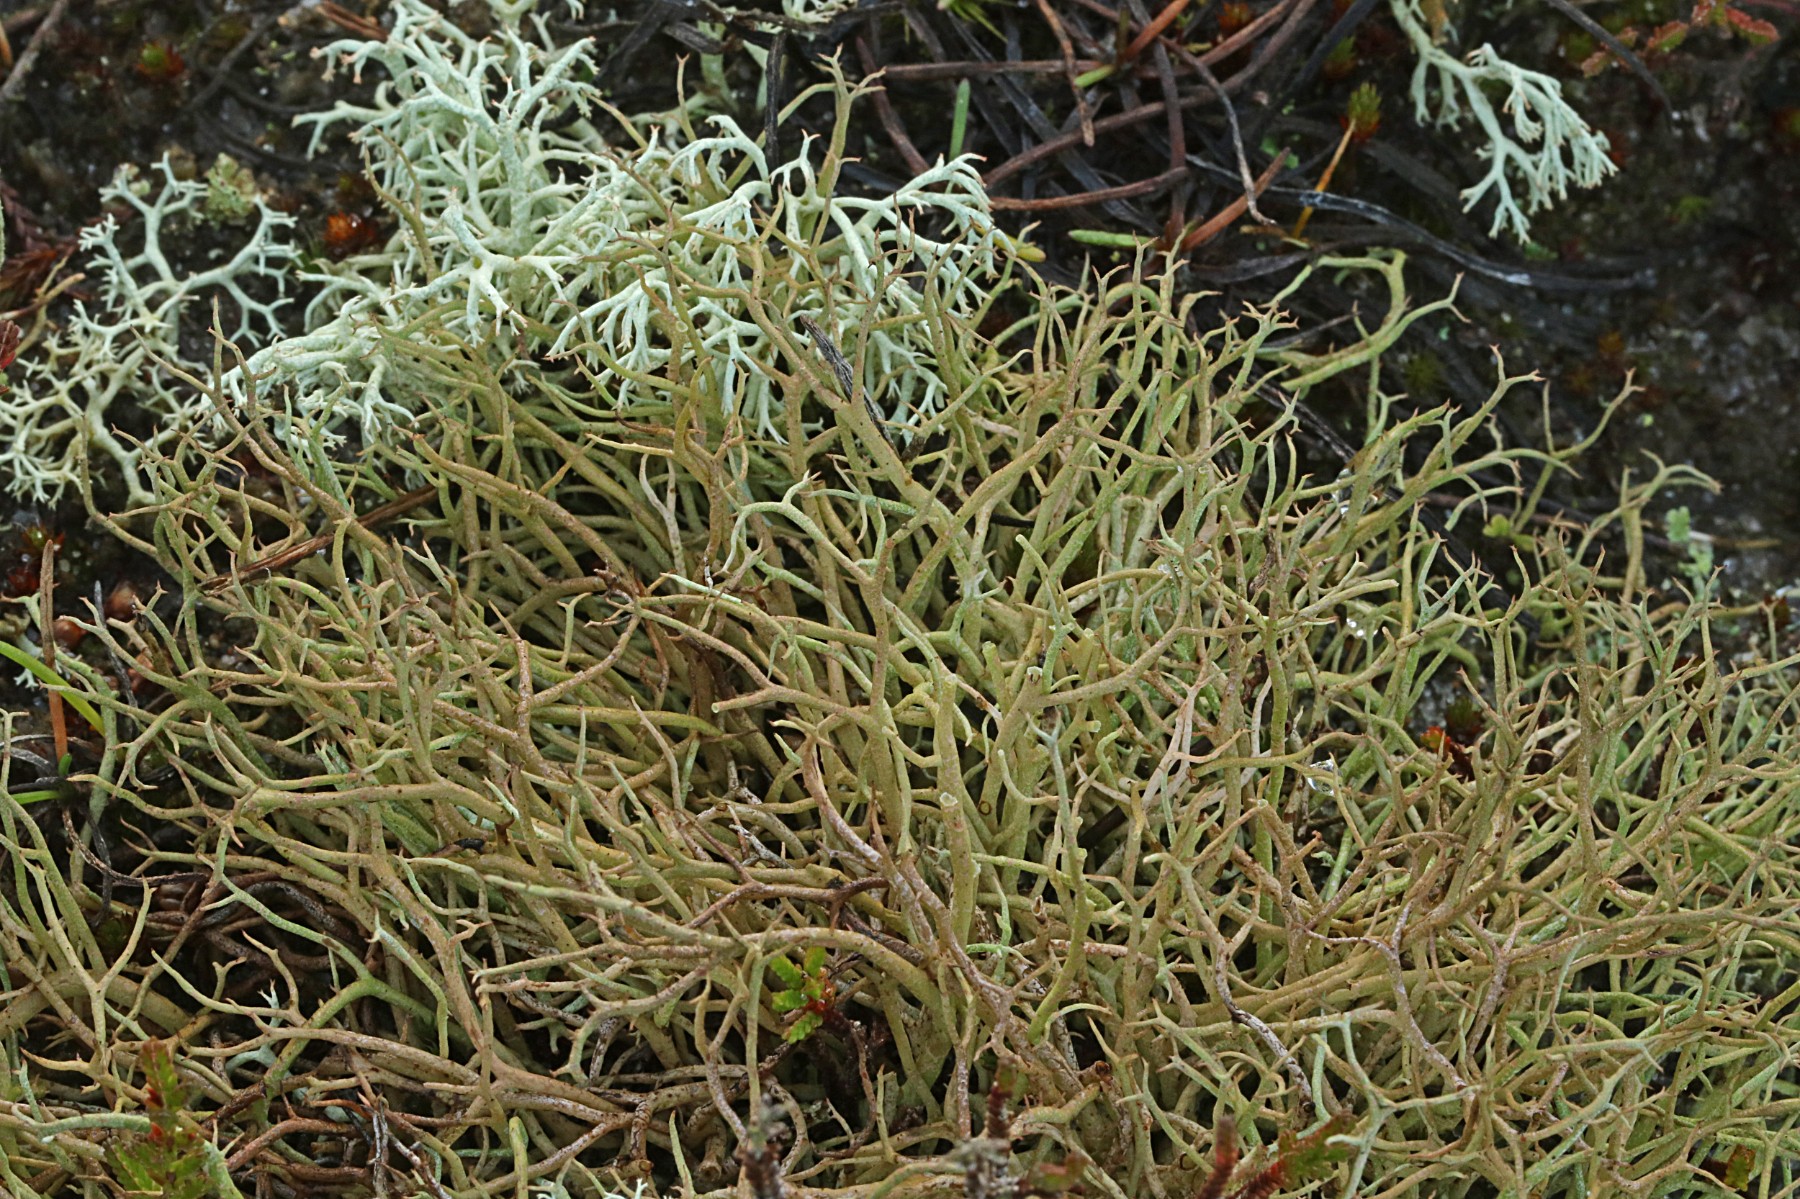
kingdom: Fungi
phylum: Ascomycota
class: Lecanoromycetes
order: Lecanorales
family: Cladoniaceae
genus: Cladonia
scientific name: Cladonia furcata
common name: kløftet bægerlav
